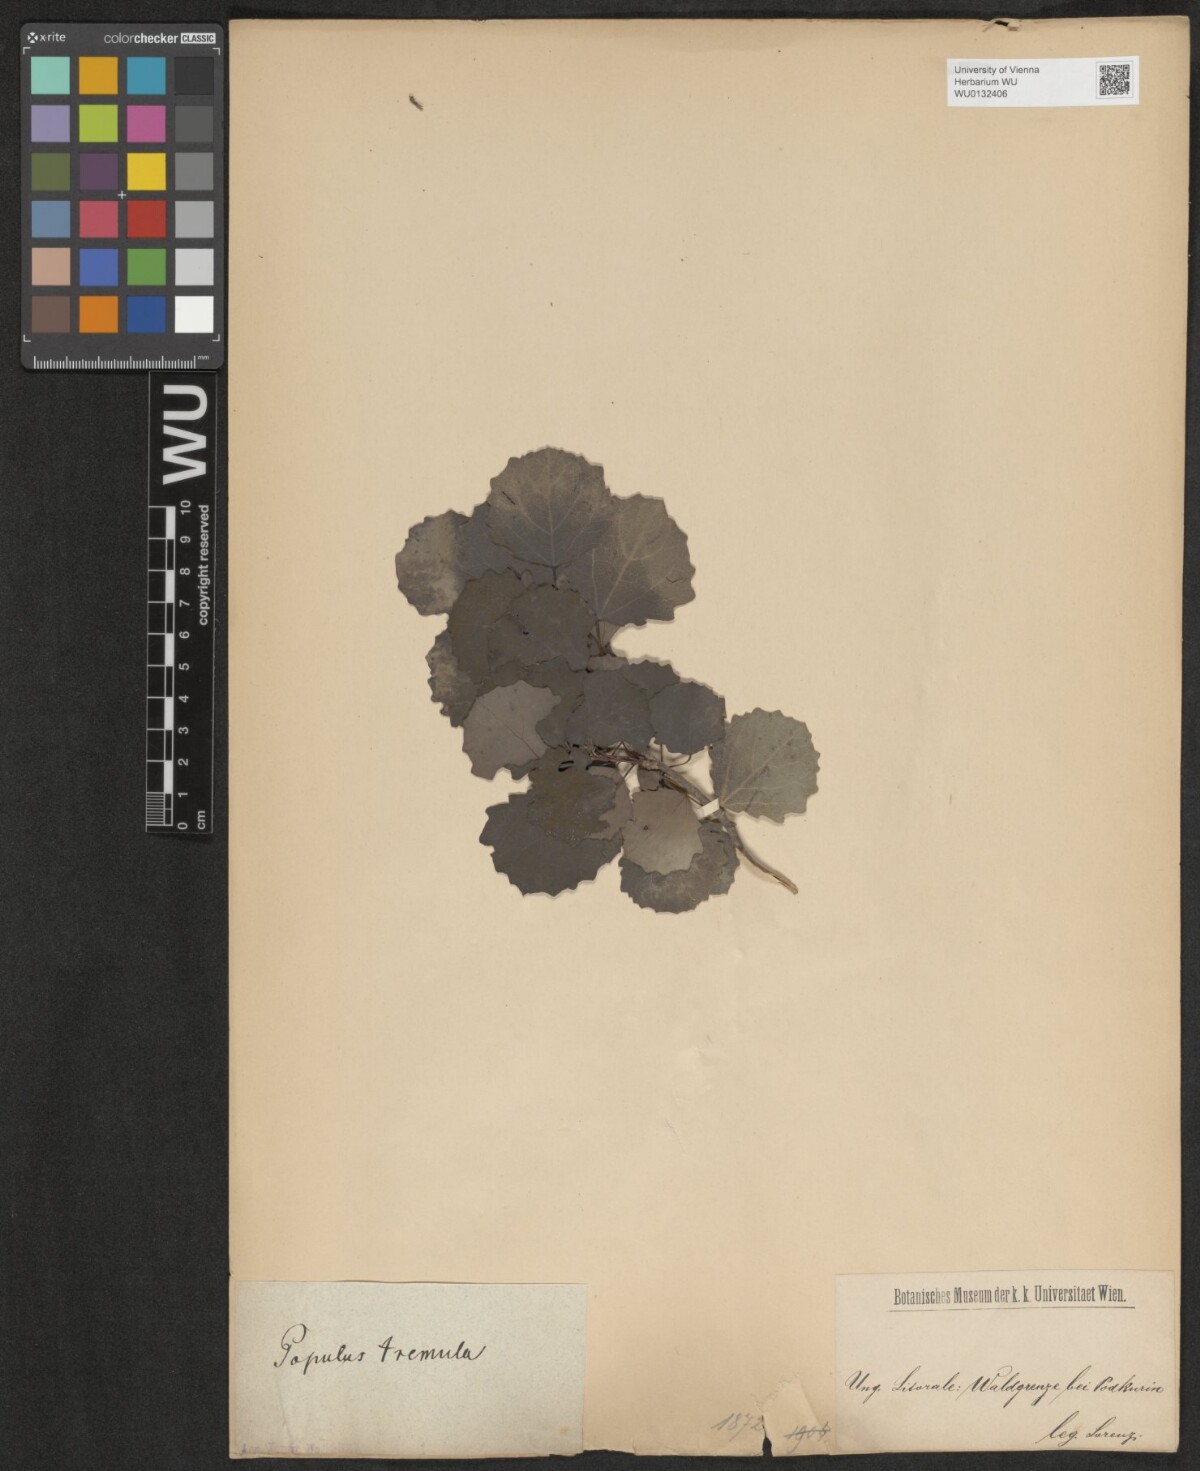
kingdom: Plantae
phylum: Tracheophyta
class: Magnoliopsida
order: Malpighiales
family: Salicaceae
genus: Populus
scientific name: Populus tremula
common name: European aspen
